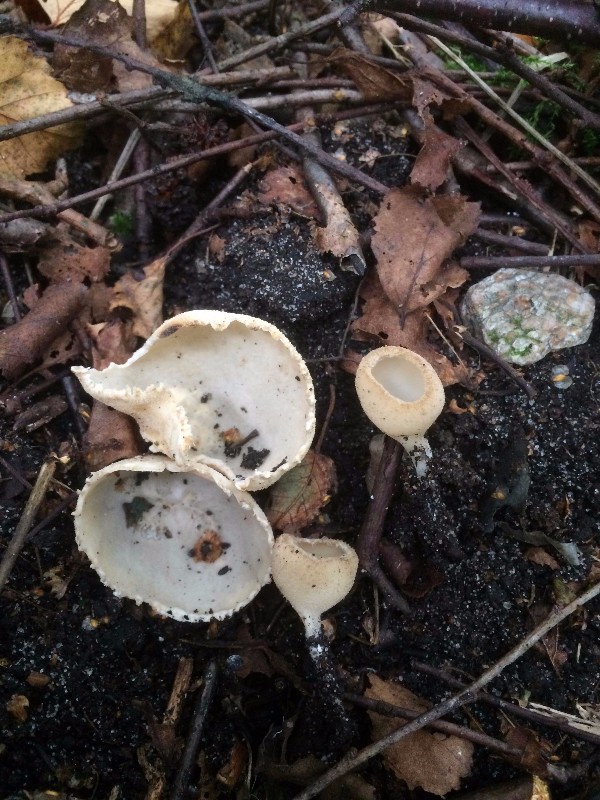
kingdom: Fungi
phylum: Ascomycota
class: Pezizomycetes
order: Pezizales
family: Pyronemataceae
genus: Tarzetta
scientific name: Tarzetta cupularis
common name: gulbrun pokalbæger
